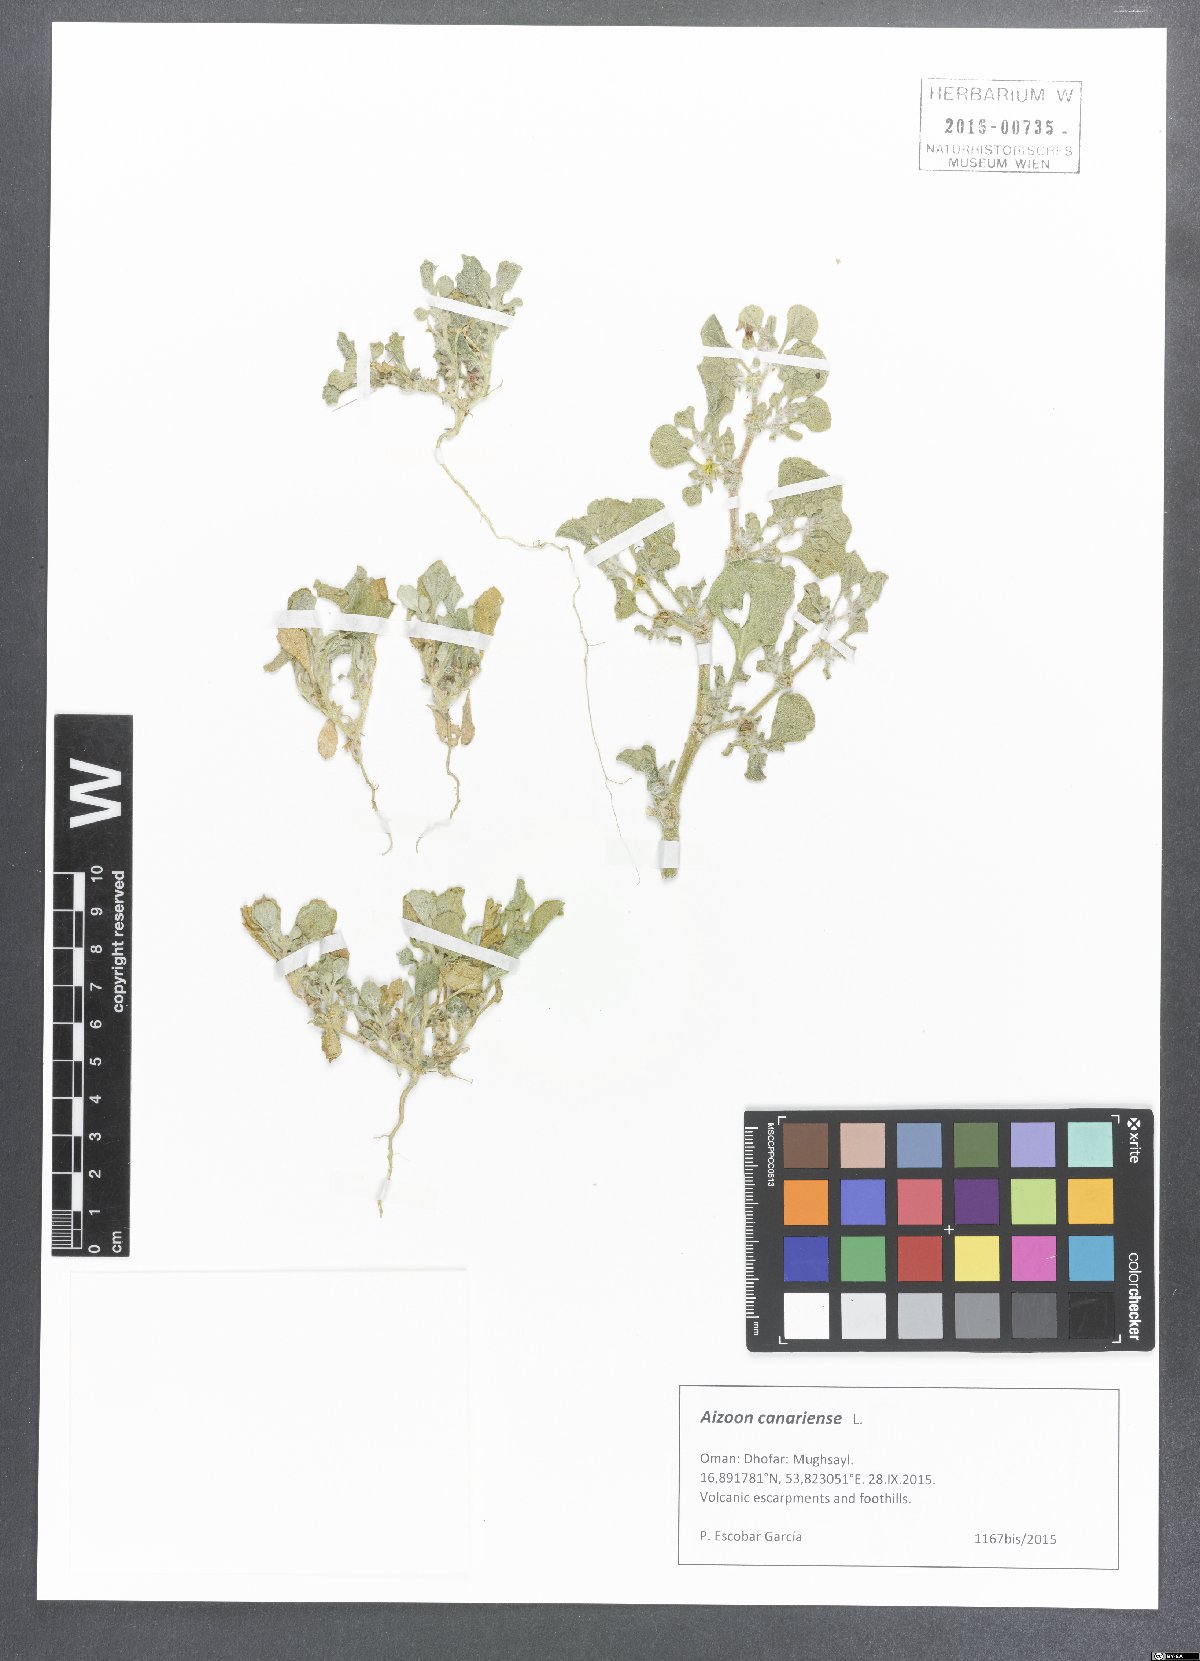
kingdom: Plantae
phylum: Tracheophyta
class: Magnoliopsida
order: Caryophyllales
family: Aizoaceae
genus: Aizoon
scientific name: Aizoon canariense
